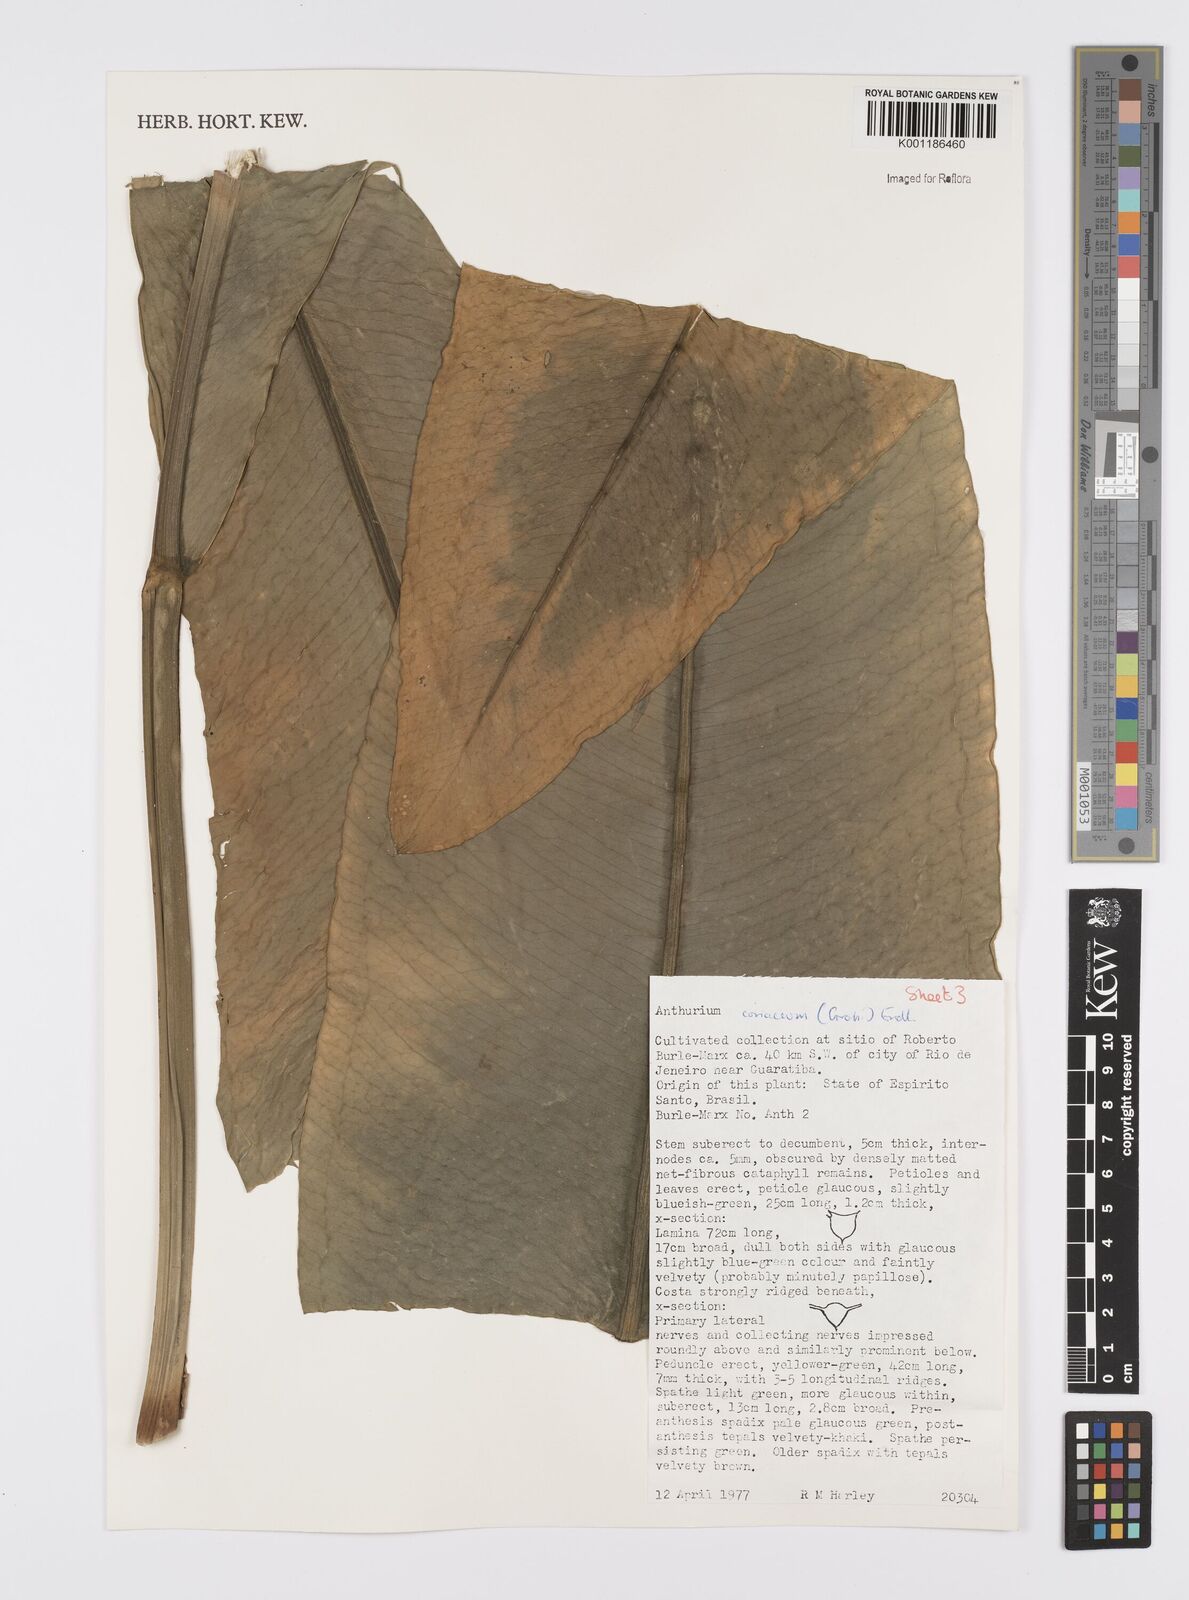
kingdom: Plantae
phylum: Tracheophyta
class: Liliopsida
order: Alismatales
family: Araceae
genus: Anthurium
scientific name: Anthurium coriaceum
